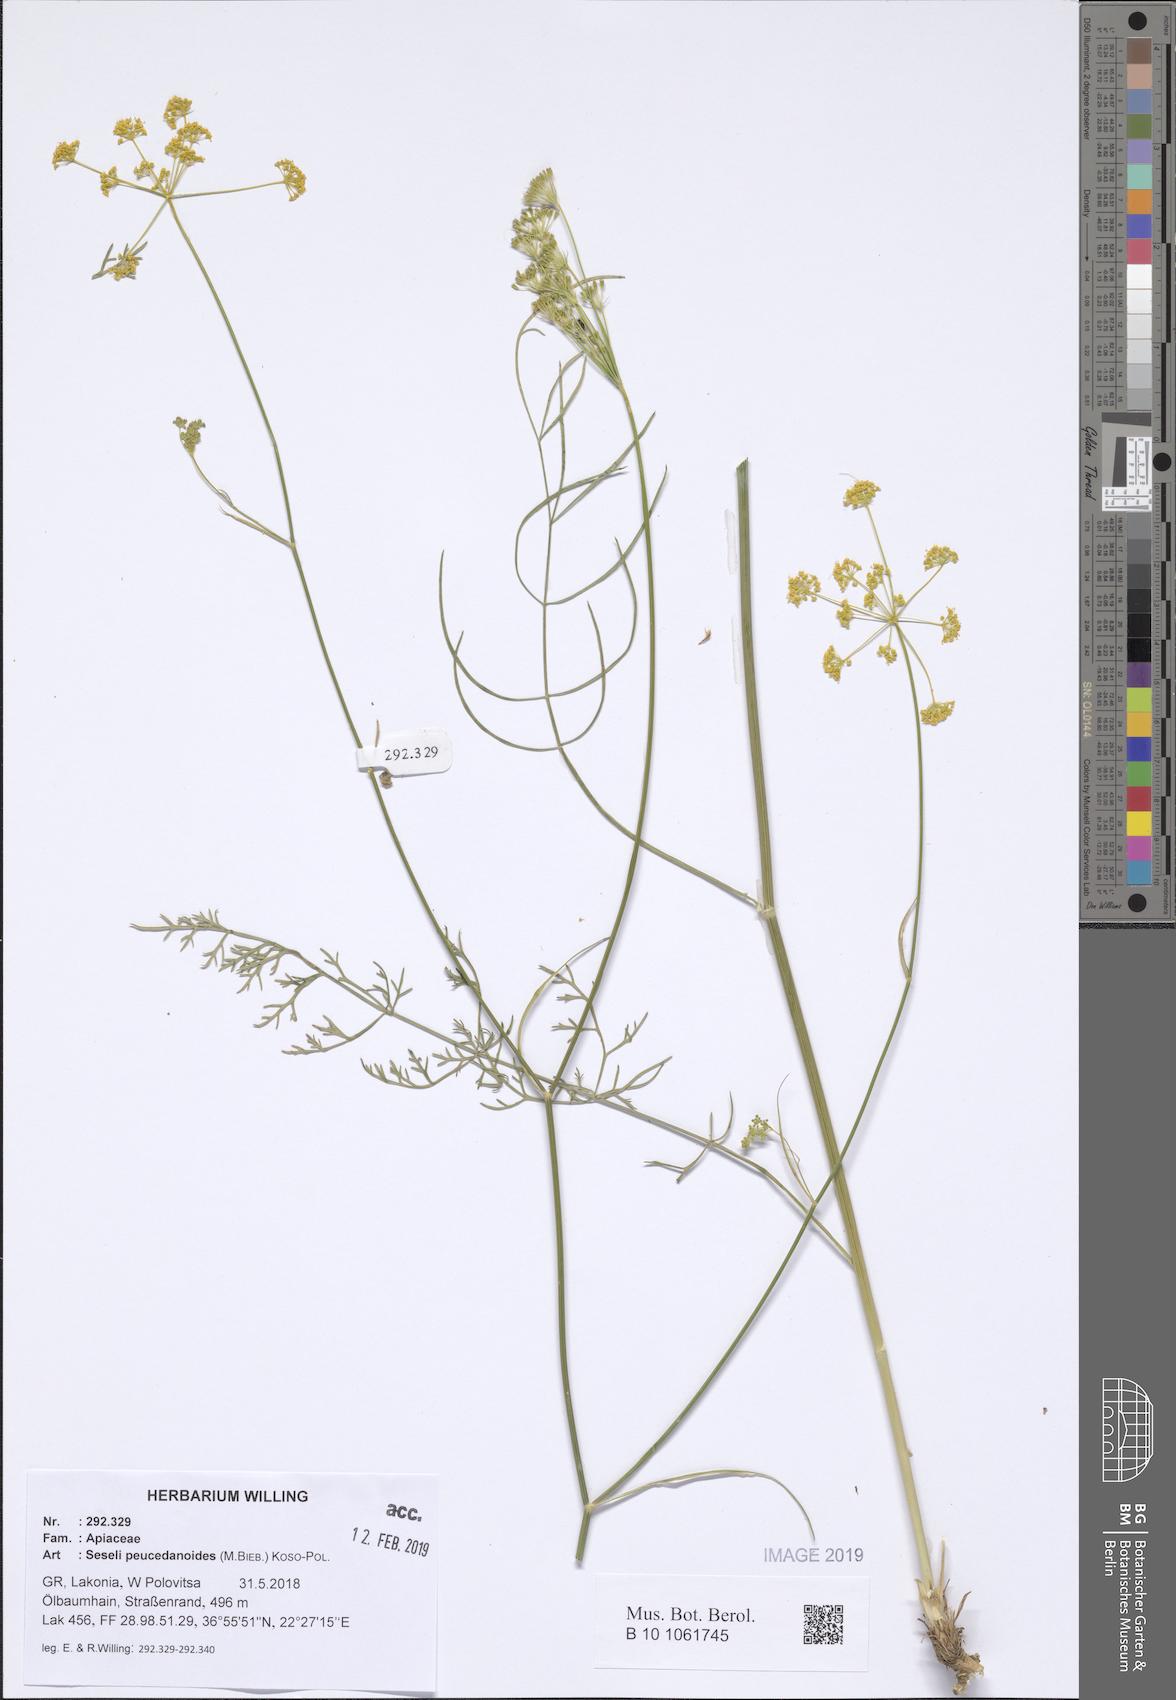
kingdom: Plantae
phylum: Tracheophyta
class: Magnoliopsida
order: Apiales
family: Apiaceae
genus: Gasparinia
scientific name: Gasparinia peucedanoides
